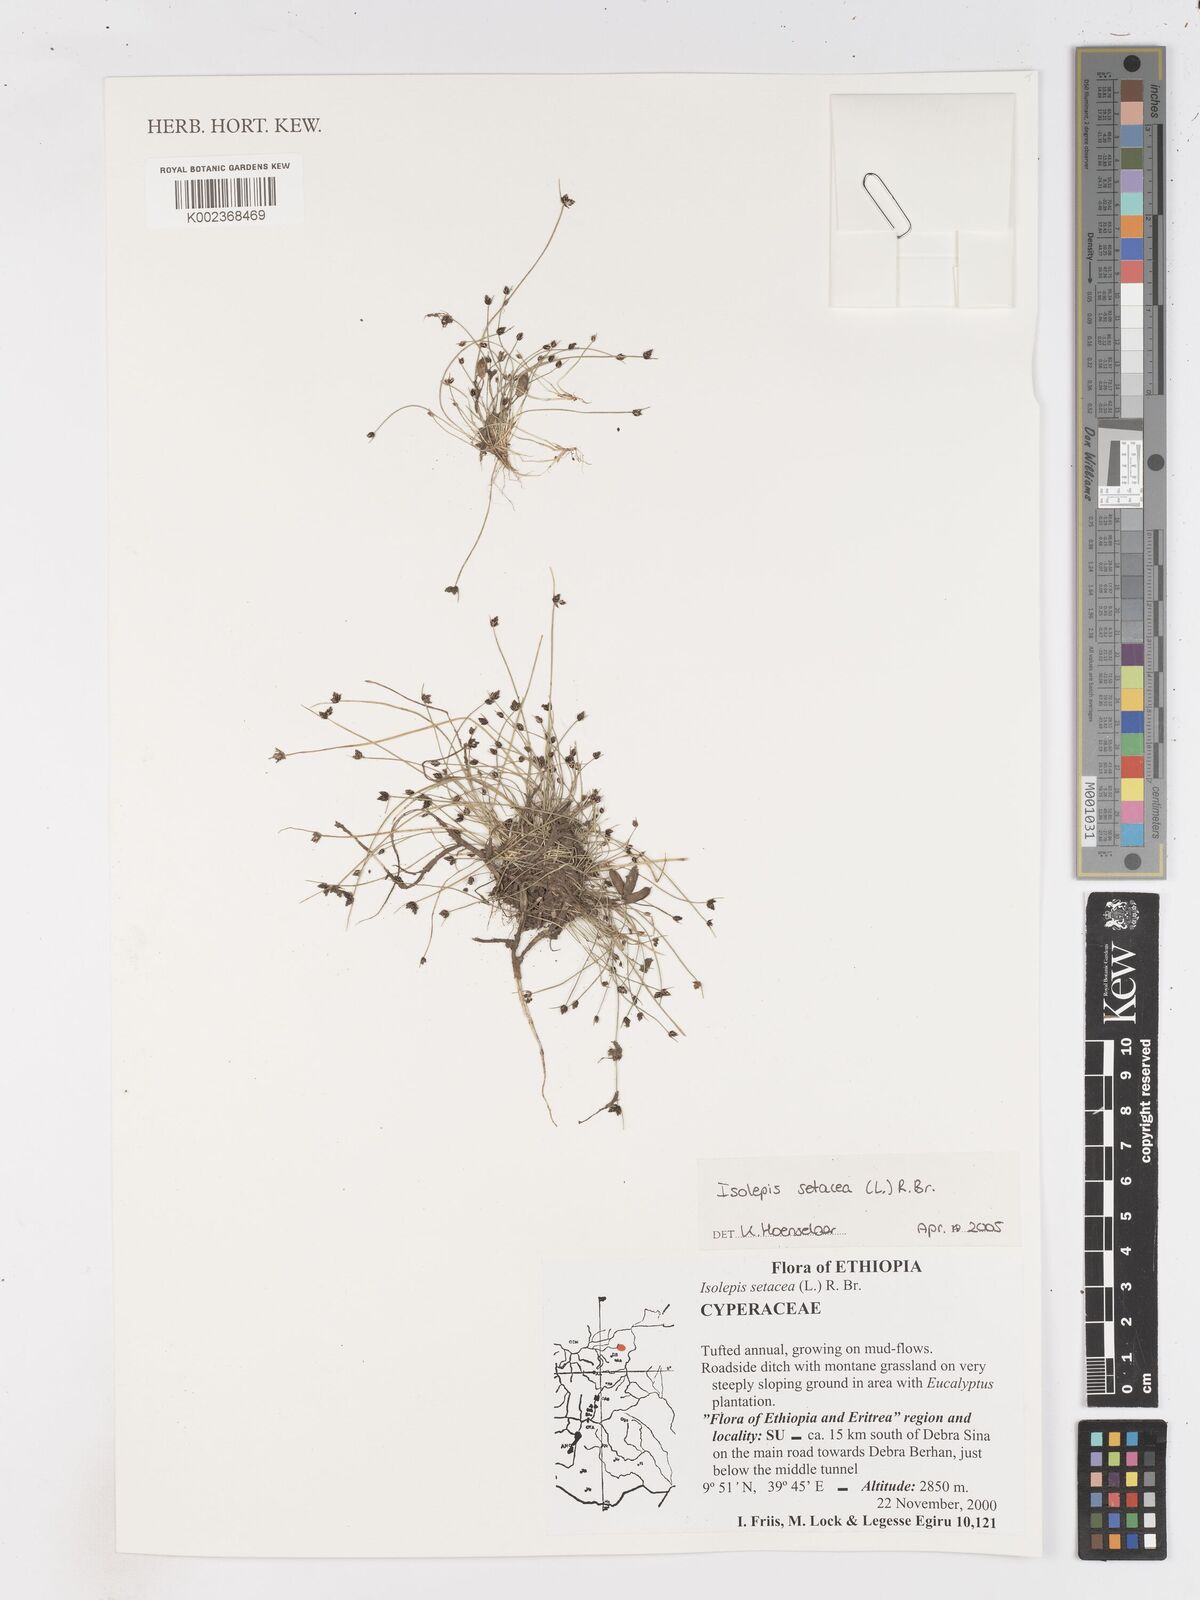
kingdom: Plantae
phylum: Tracheophyta
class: Liliopsida
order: Poales
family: Cyperaceae
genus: Isolepis
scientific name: Isolepis setacea
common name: Bristle club-rush
